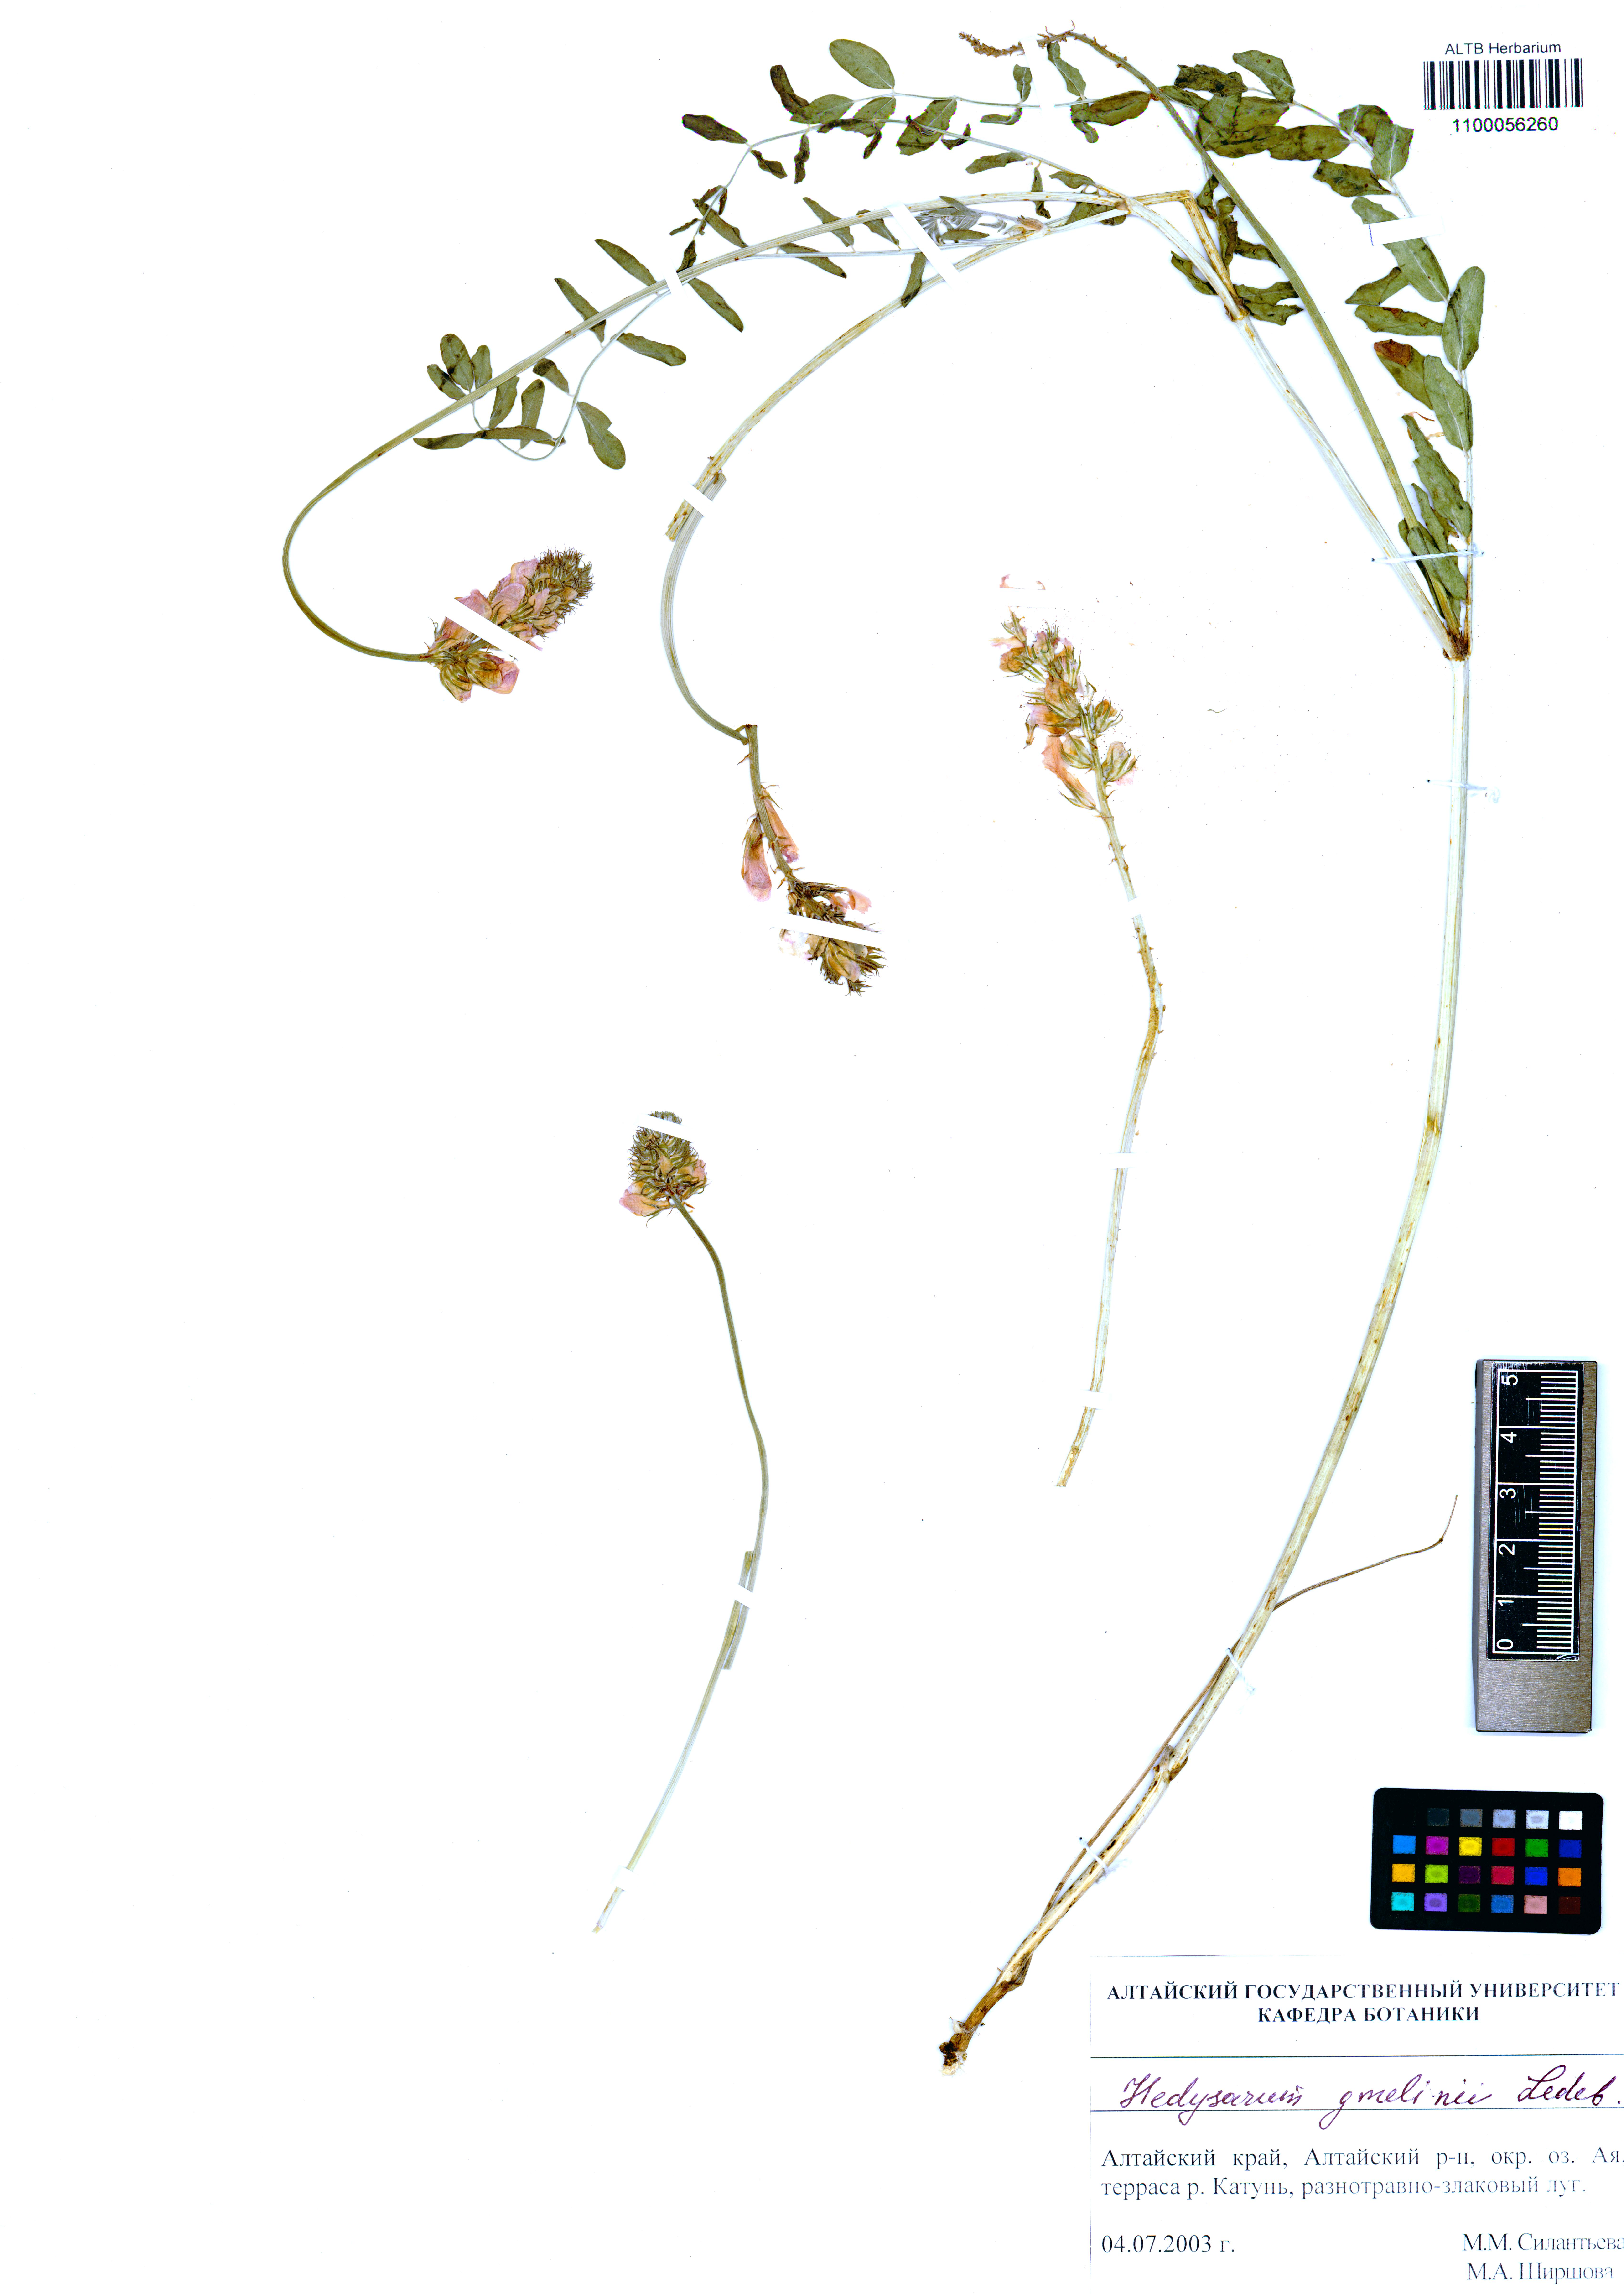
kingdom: Plantae
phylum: Tracheophyta
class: Magnoliopsida
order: Fabales
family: Fabaceae
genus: Hedysarum
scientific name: Hedysarum gmelinii
